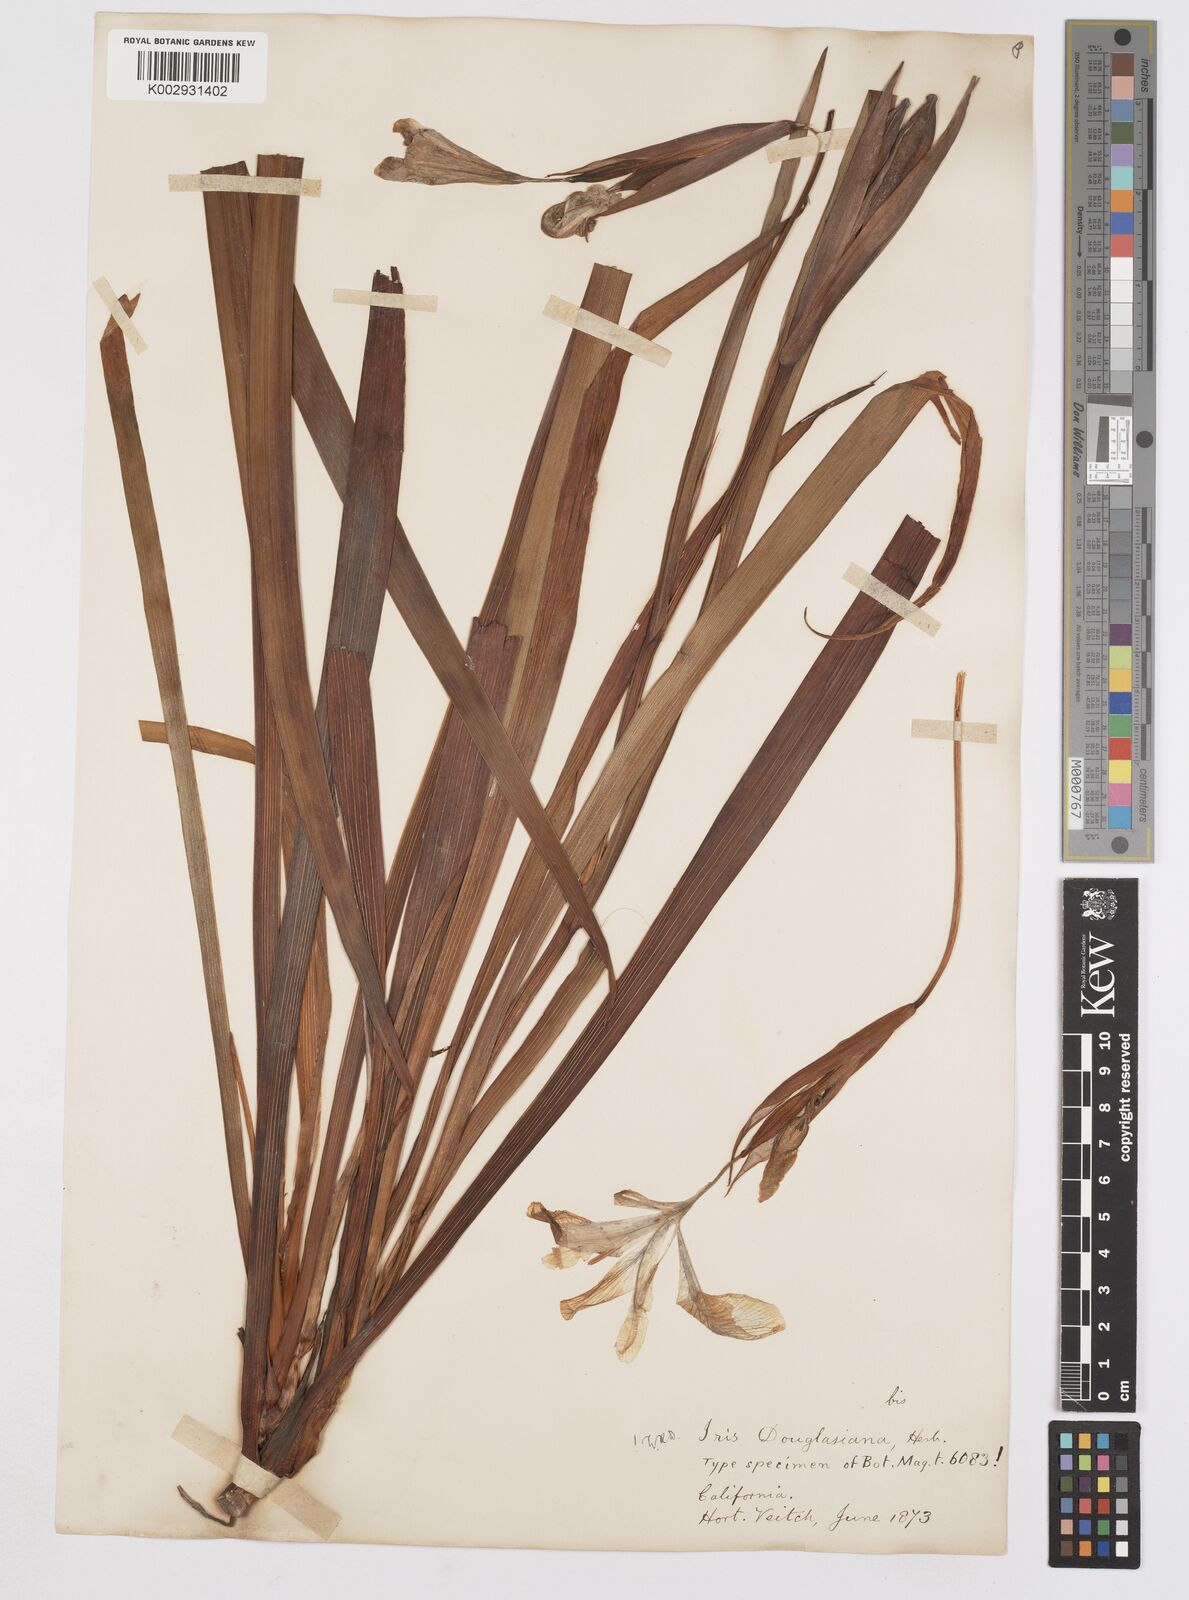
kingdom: Plantae
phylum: Tracheophyta
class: Liliopsida
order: Asparagales
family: Iridaceae
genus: Iris
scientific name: Iris douglasiana
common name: Marin iris
